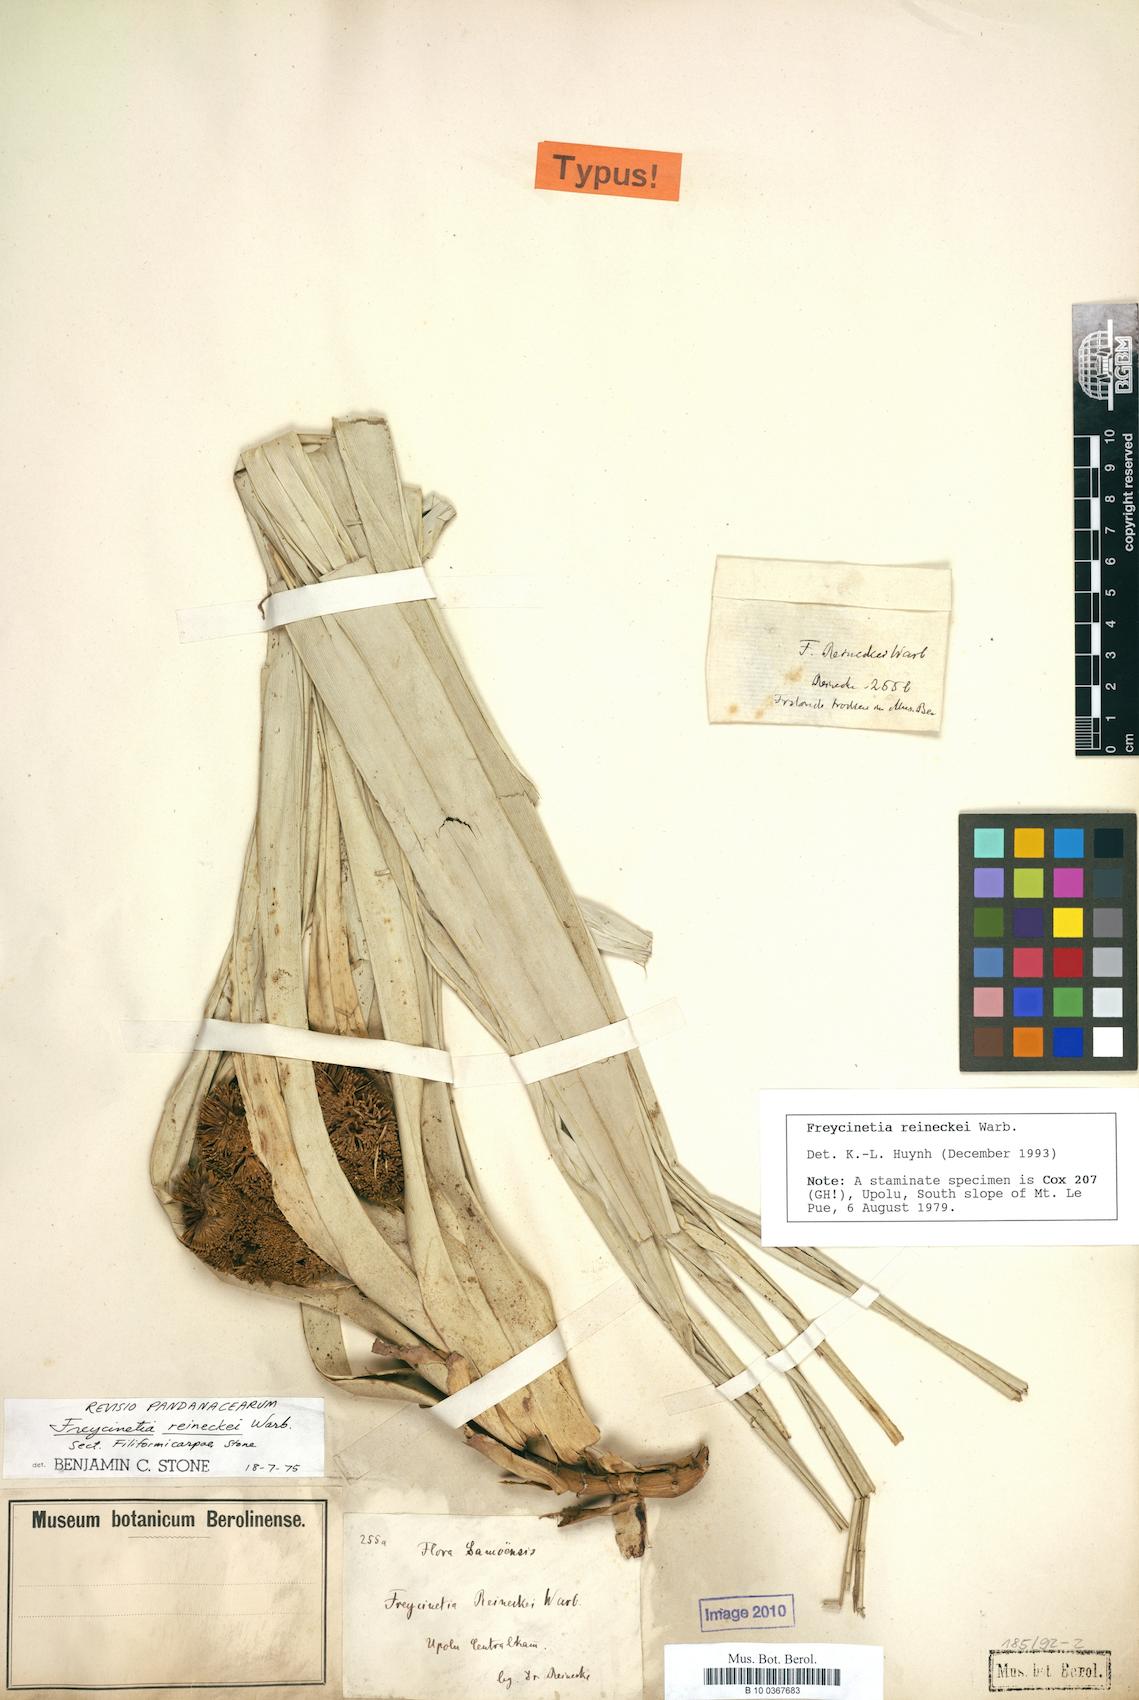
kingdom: Plantae
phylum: Tracheophyta
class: Liliopsida
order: Pandanales
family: Pandanaceae
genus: Freycinetia
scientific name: Freycinetia reineckei
